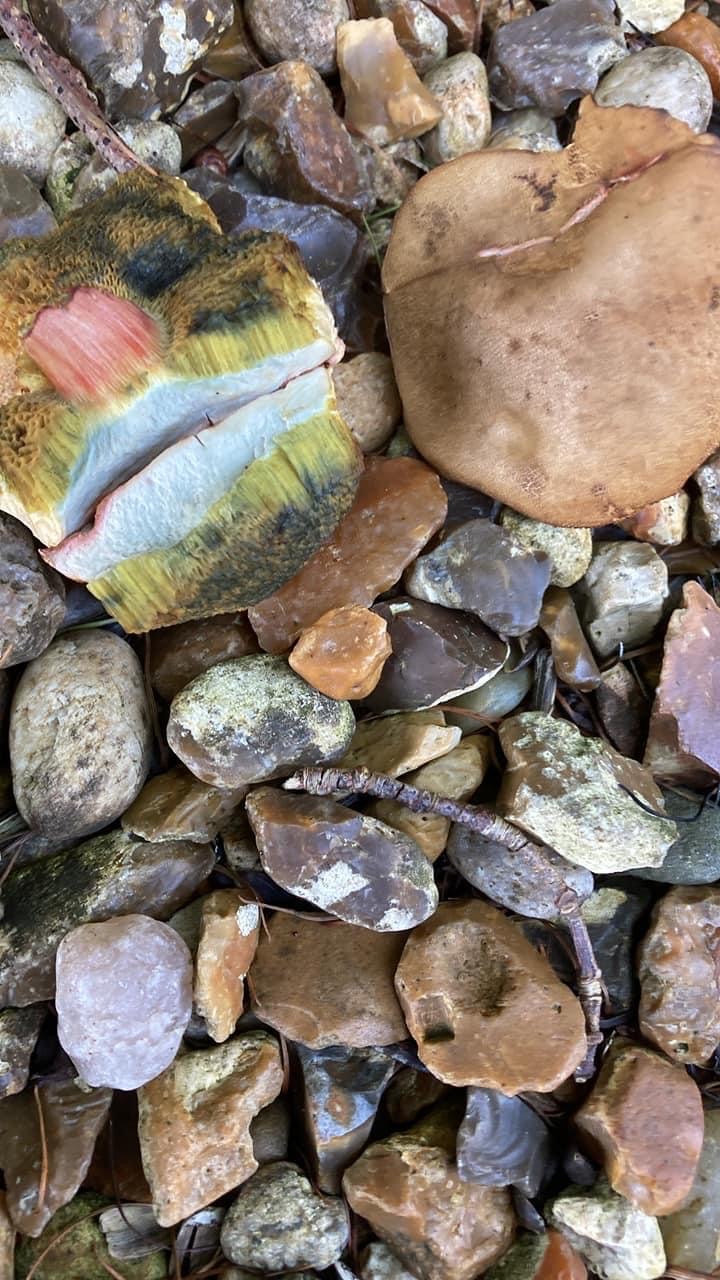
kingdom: Fungi
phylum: Basidiomycota
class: Agaricomycetes
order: Boletales
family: Boletaceae
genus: Hortiboletus
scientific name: Hortiboletus bubalinus
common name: aurora-rørhat
